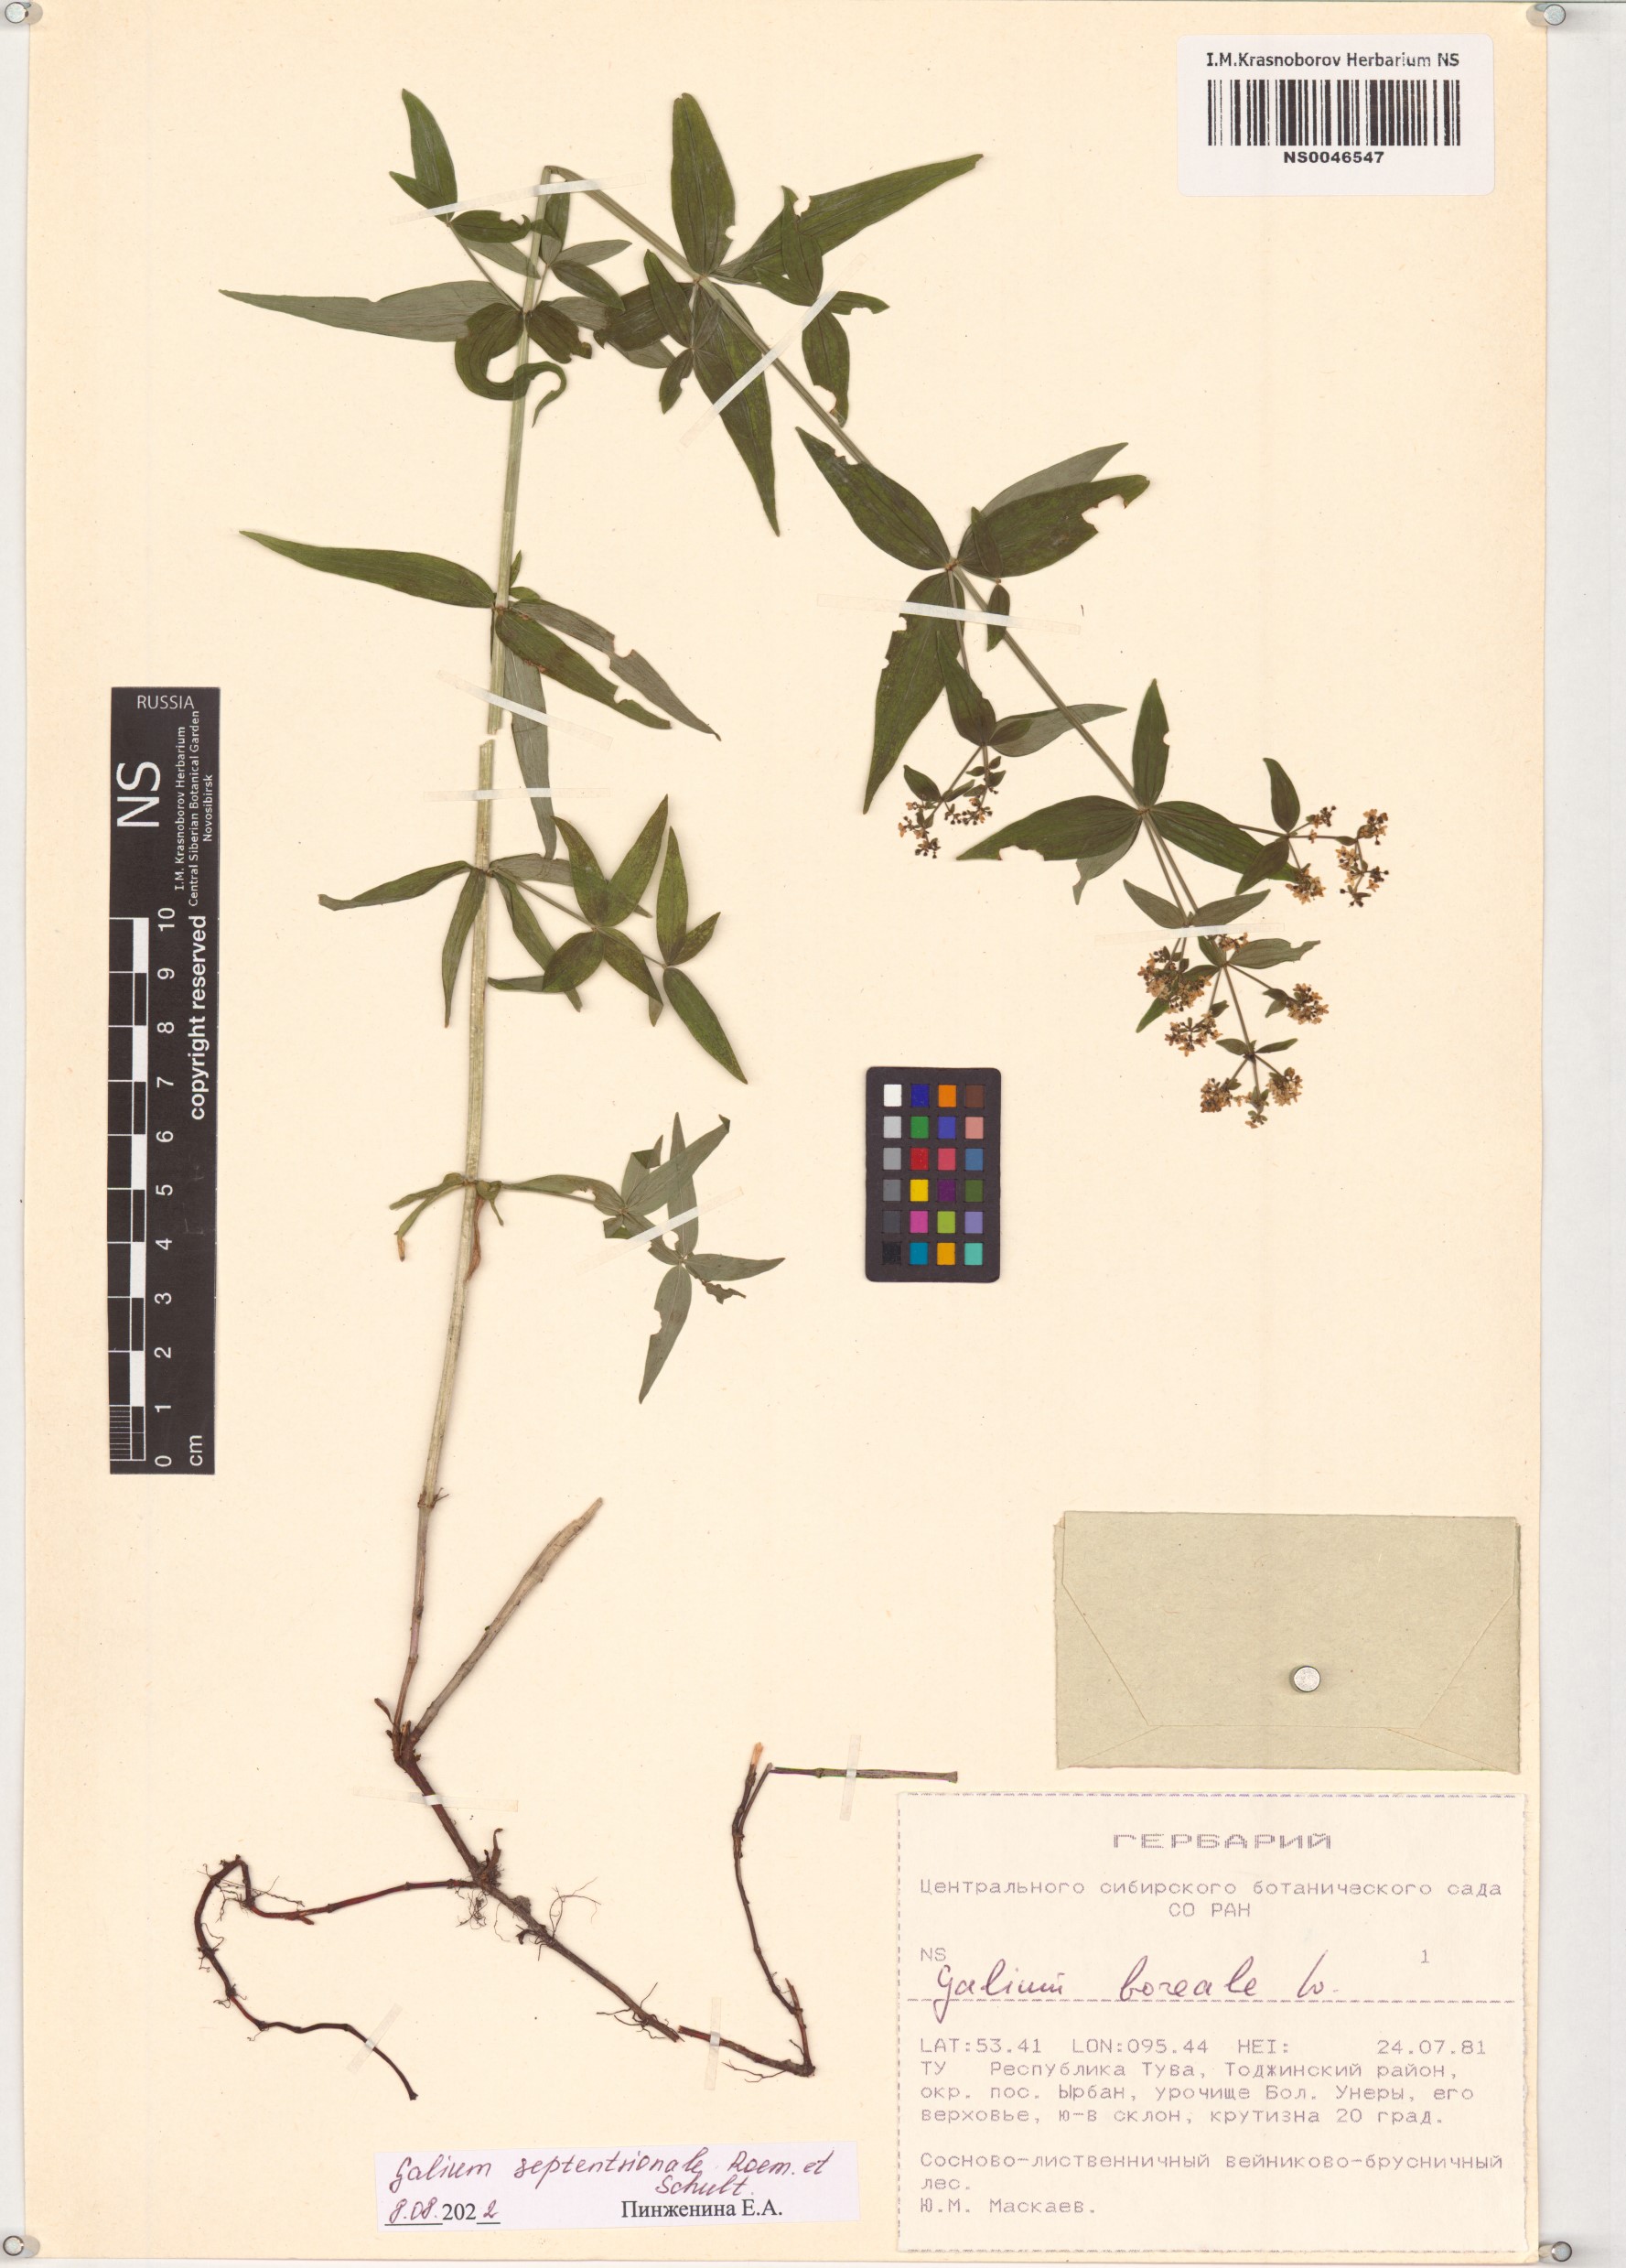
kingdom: Plantae
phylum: Tracheophyta
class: Magnoliopsida
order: Gentianales
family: Rubiaceae
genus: Galium
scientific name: Galium boreale
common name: Northern bedstraw
